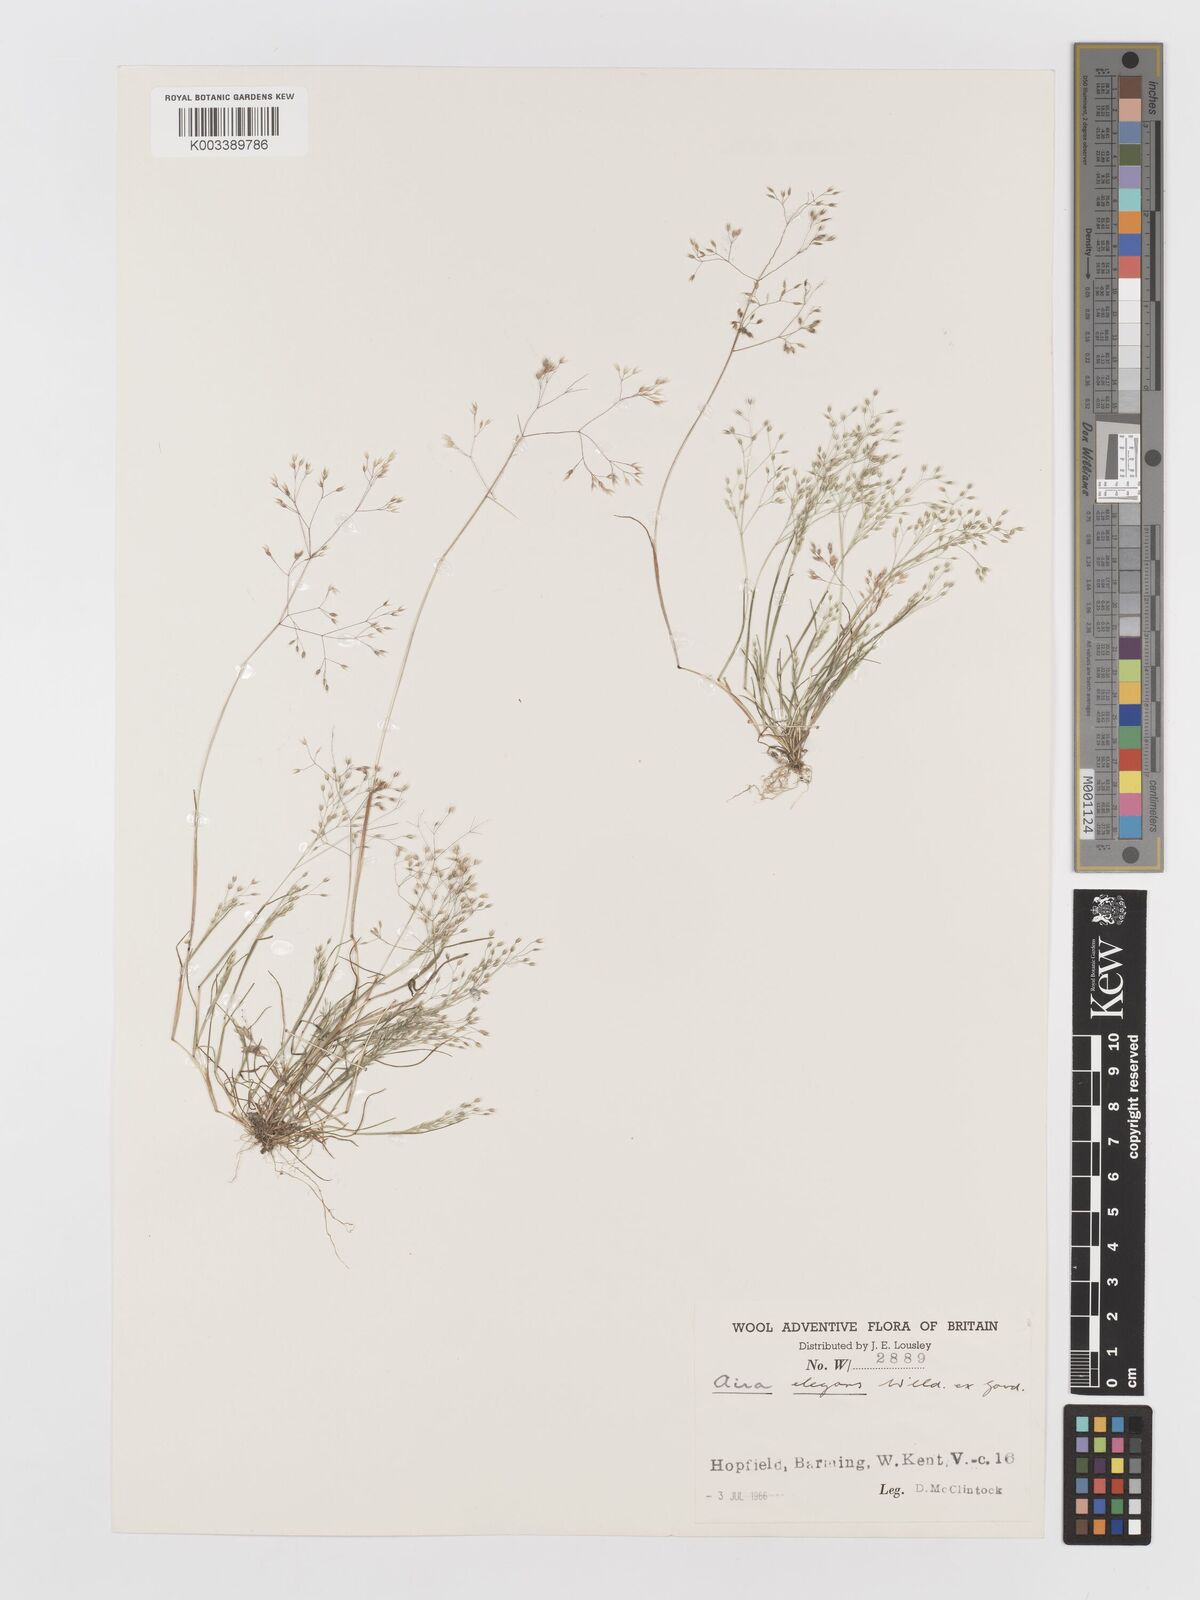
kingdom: Plantae
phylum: Tracheophyta
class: Liliopsida
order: Poales
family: Poaceae
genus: Aira
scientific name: Aira elegans
